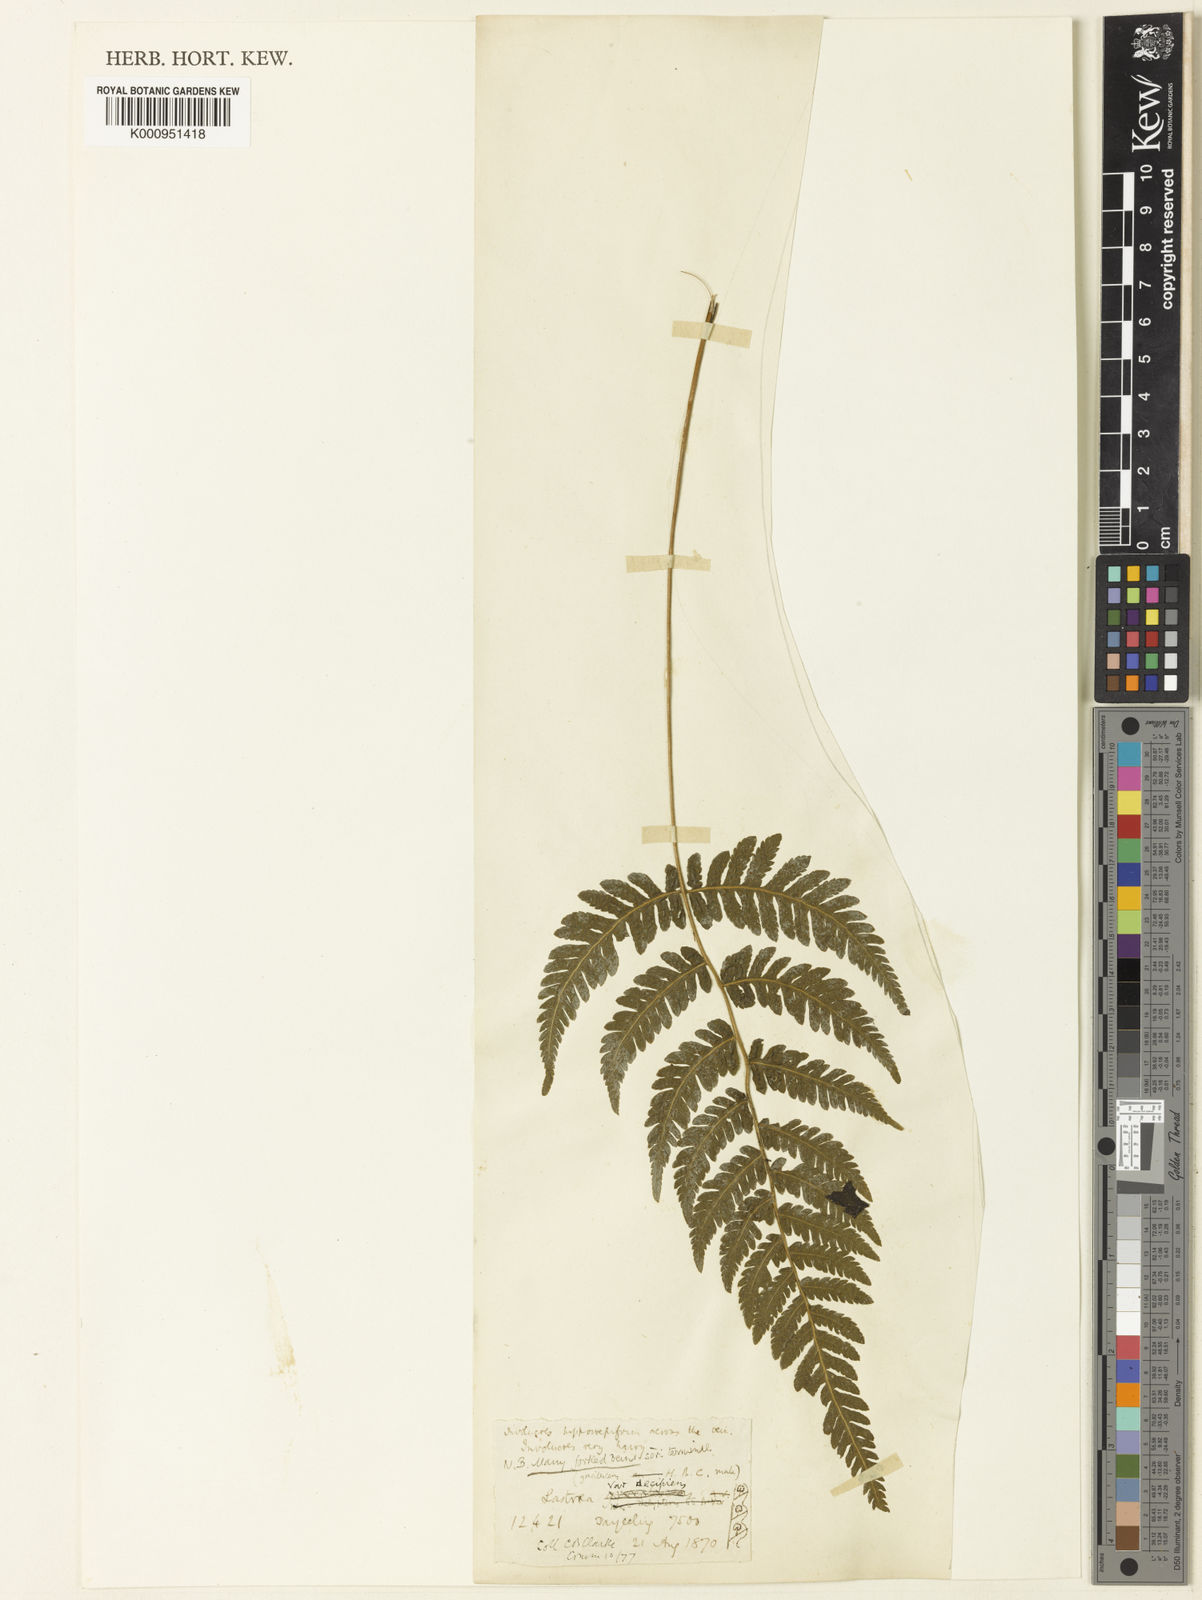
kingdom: Plantae
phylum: Tracheophyta
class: Polypodiopsida
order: Polypodiales
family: Thelypteridaceae
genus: Metathelypteris
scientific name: Metathelypteris decipiens
